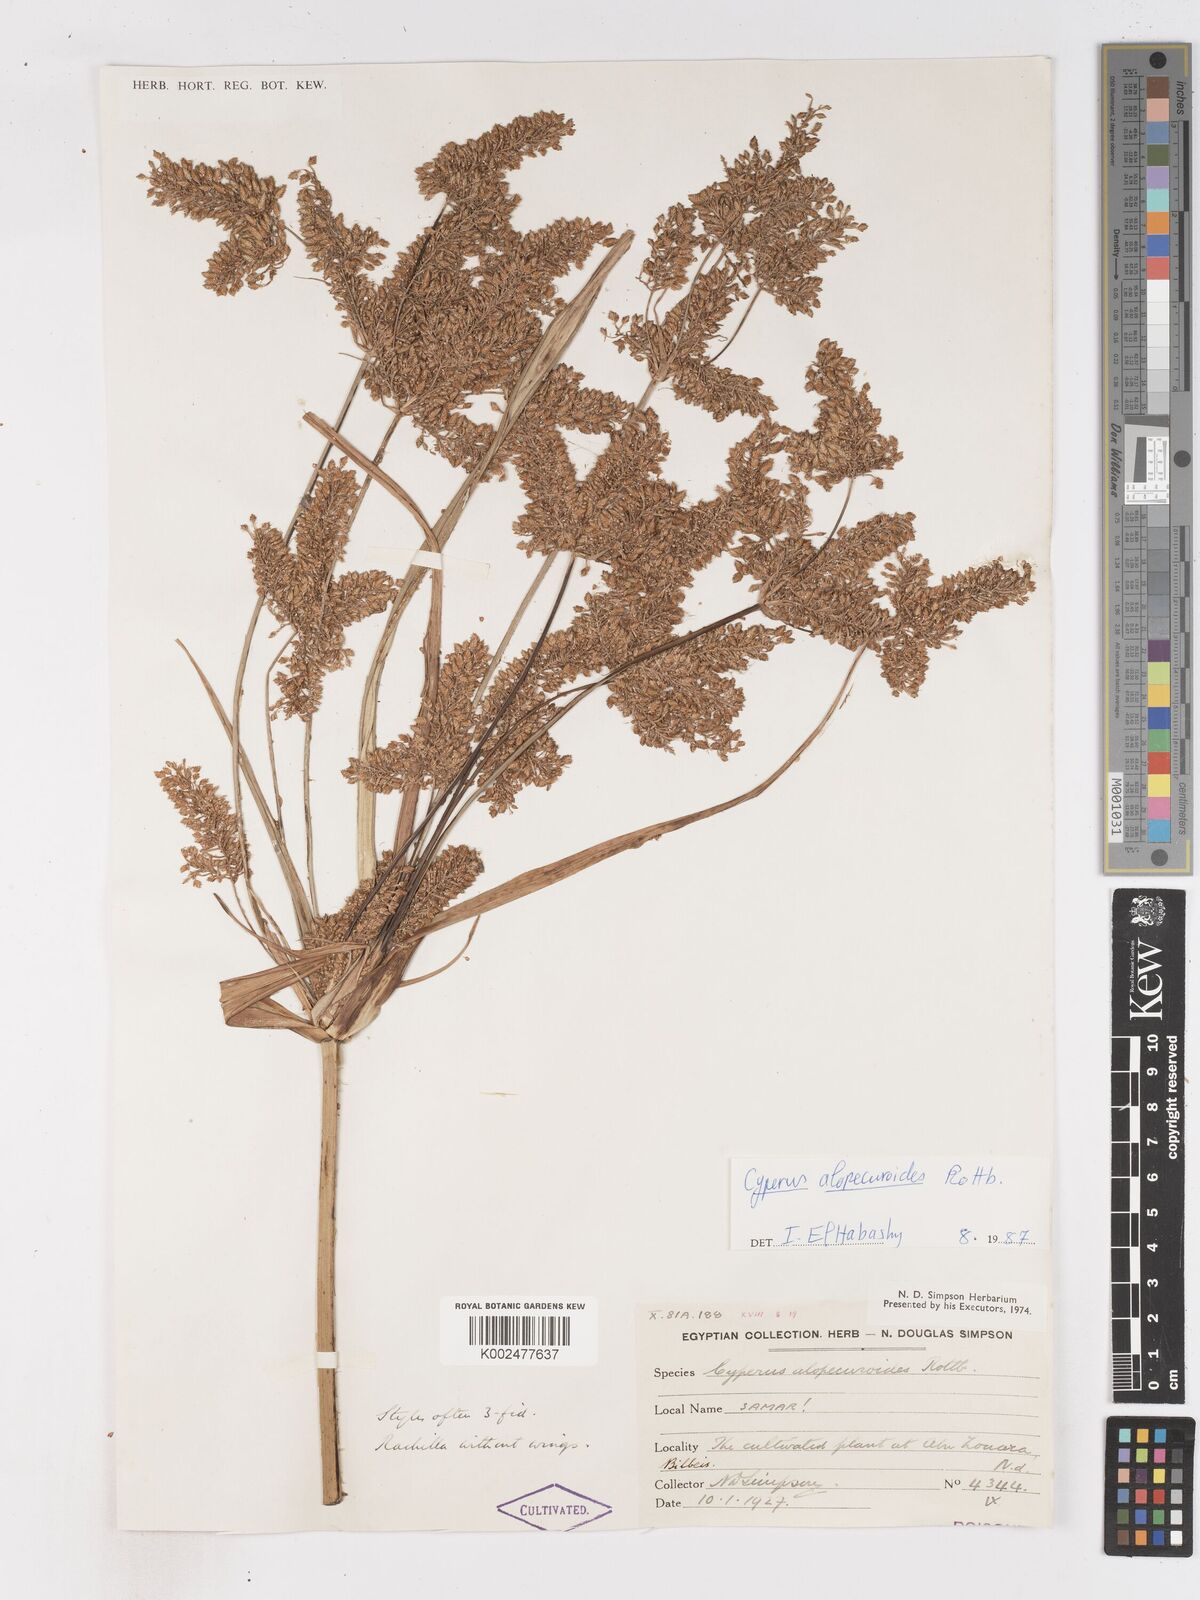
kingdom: Plantae
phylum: Tracheophyta
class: Liliopsida
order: Poales
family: Cyperaceae
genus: Cyperus
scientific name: Cyperus alopecuroides
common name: Foxtail flatsedge
